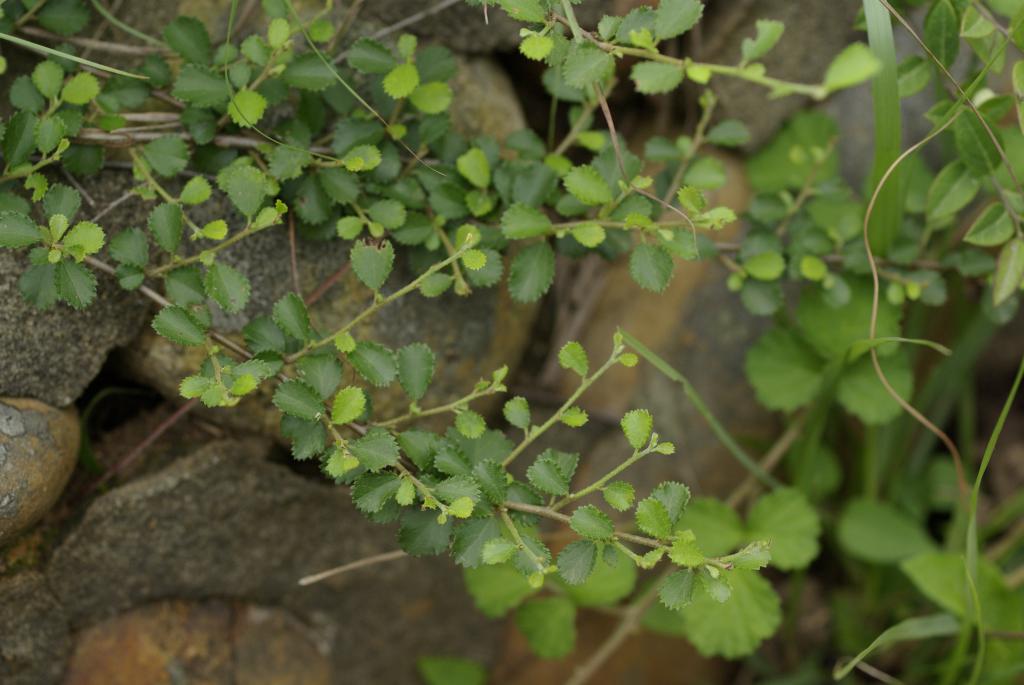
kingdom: Plantae
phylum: Tracheophyta
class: Magnoliopsida
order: Malvales
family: Malvaceae
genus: Grewia
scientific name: Grewia piscatorum
